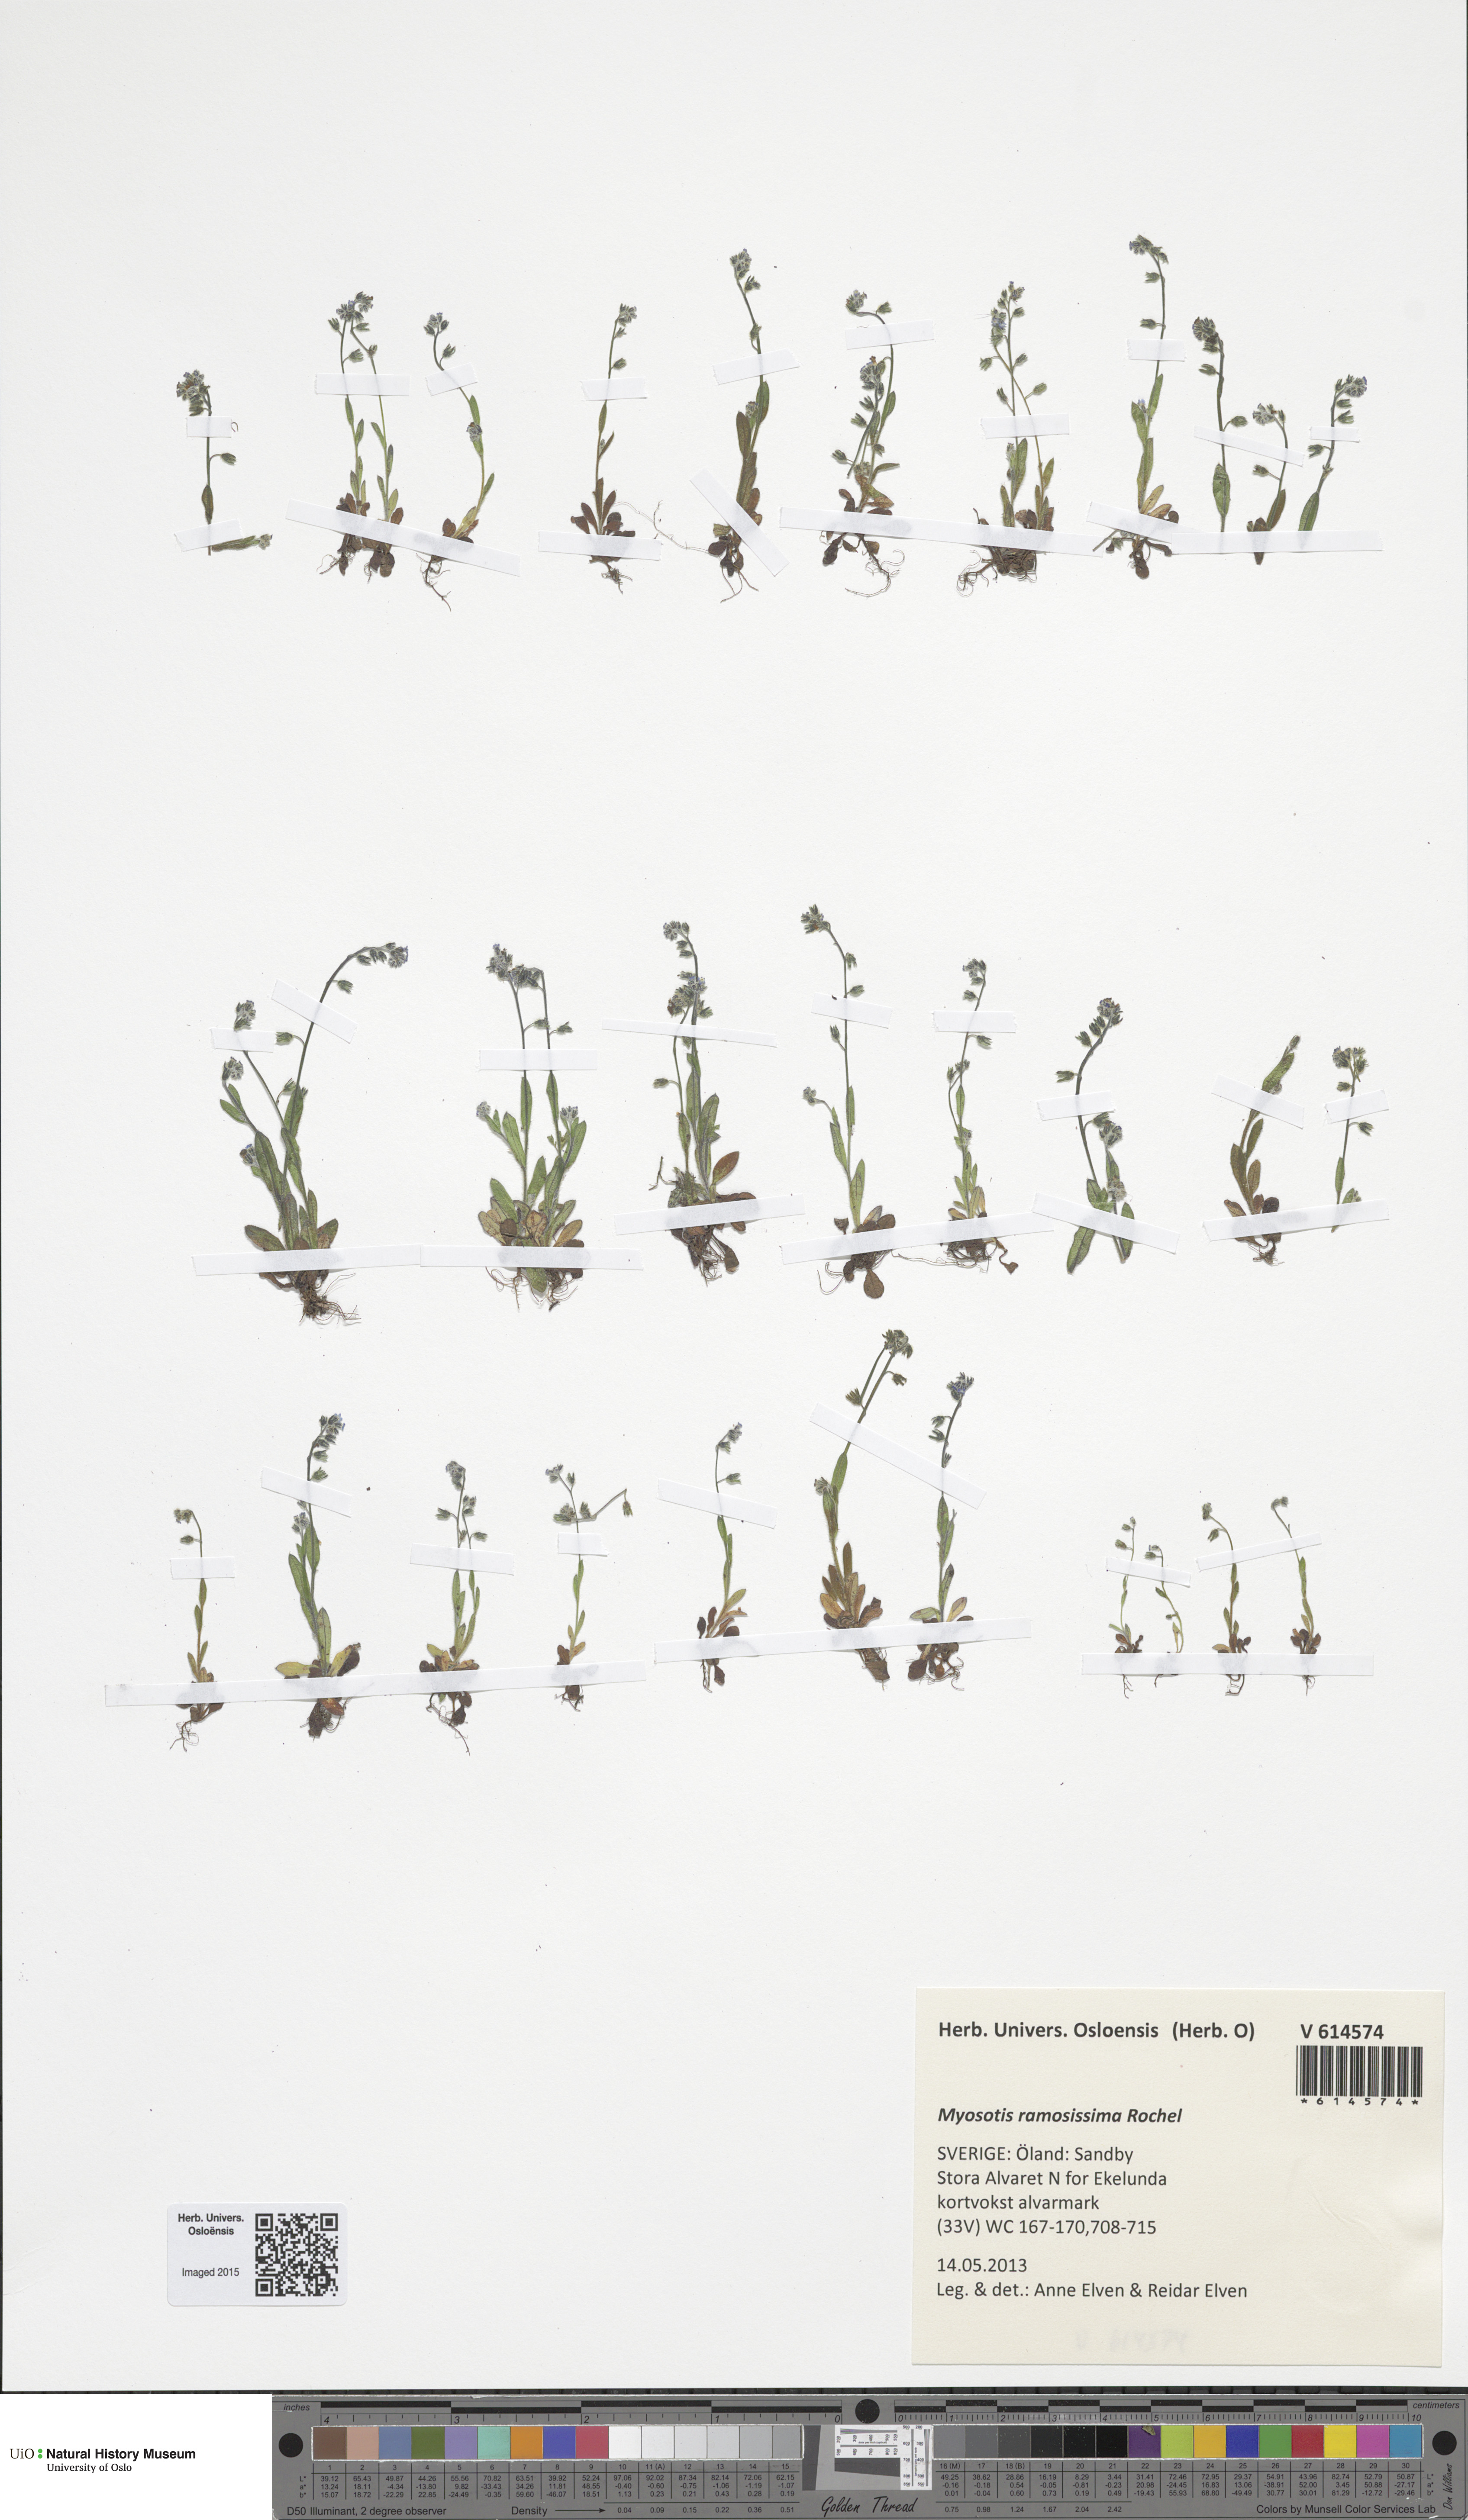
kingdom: Plantae
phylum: Tracheophyta
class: Magnoliopsida
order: Boraginales
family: Boraginaceae
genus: Myosotis
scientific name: Myosotis ramosissima
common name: Early forget-me-not
